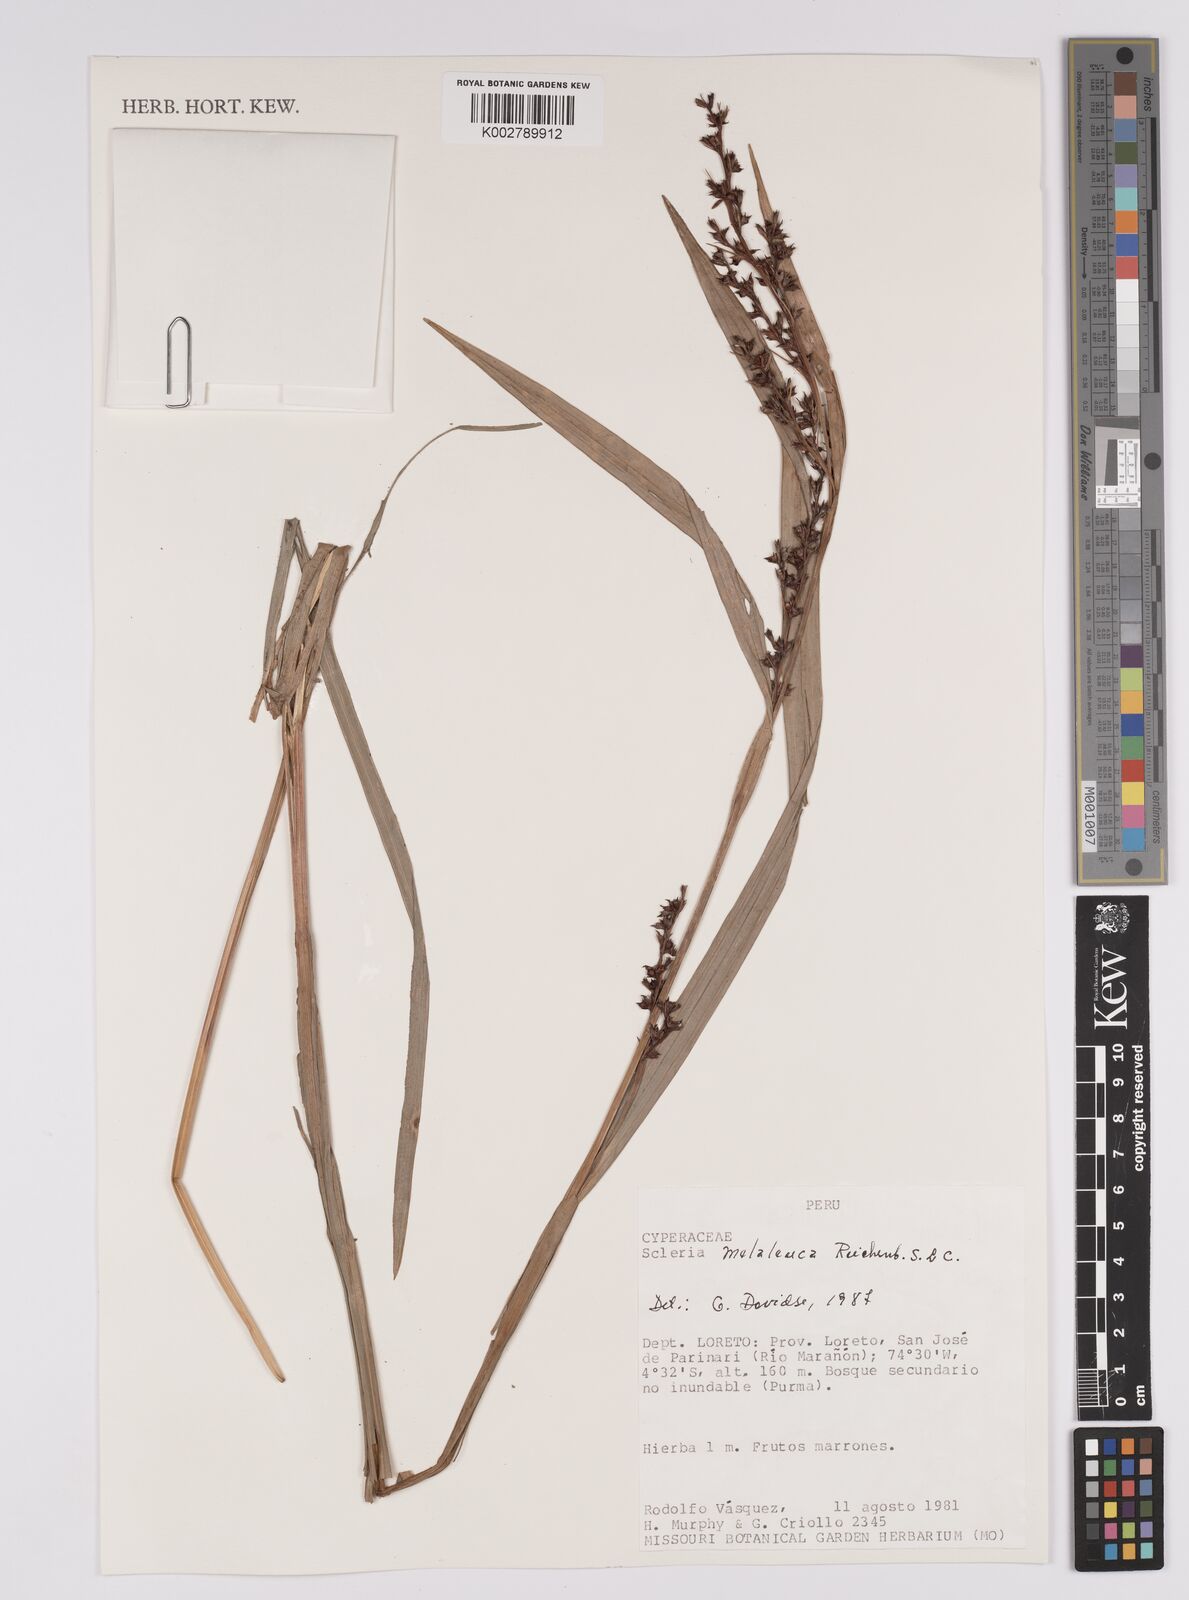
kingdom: Plantae
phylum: Tracheophyta
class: Liliopsida
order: Poales
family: Cyperaceae
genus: Scleria
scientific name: Scleria gaertneri
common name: Cortadera blanca
